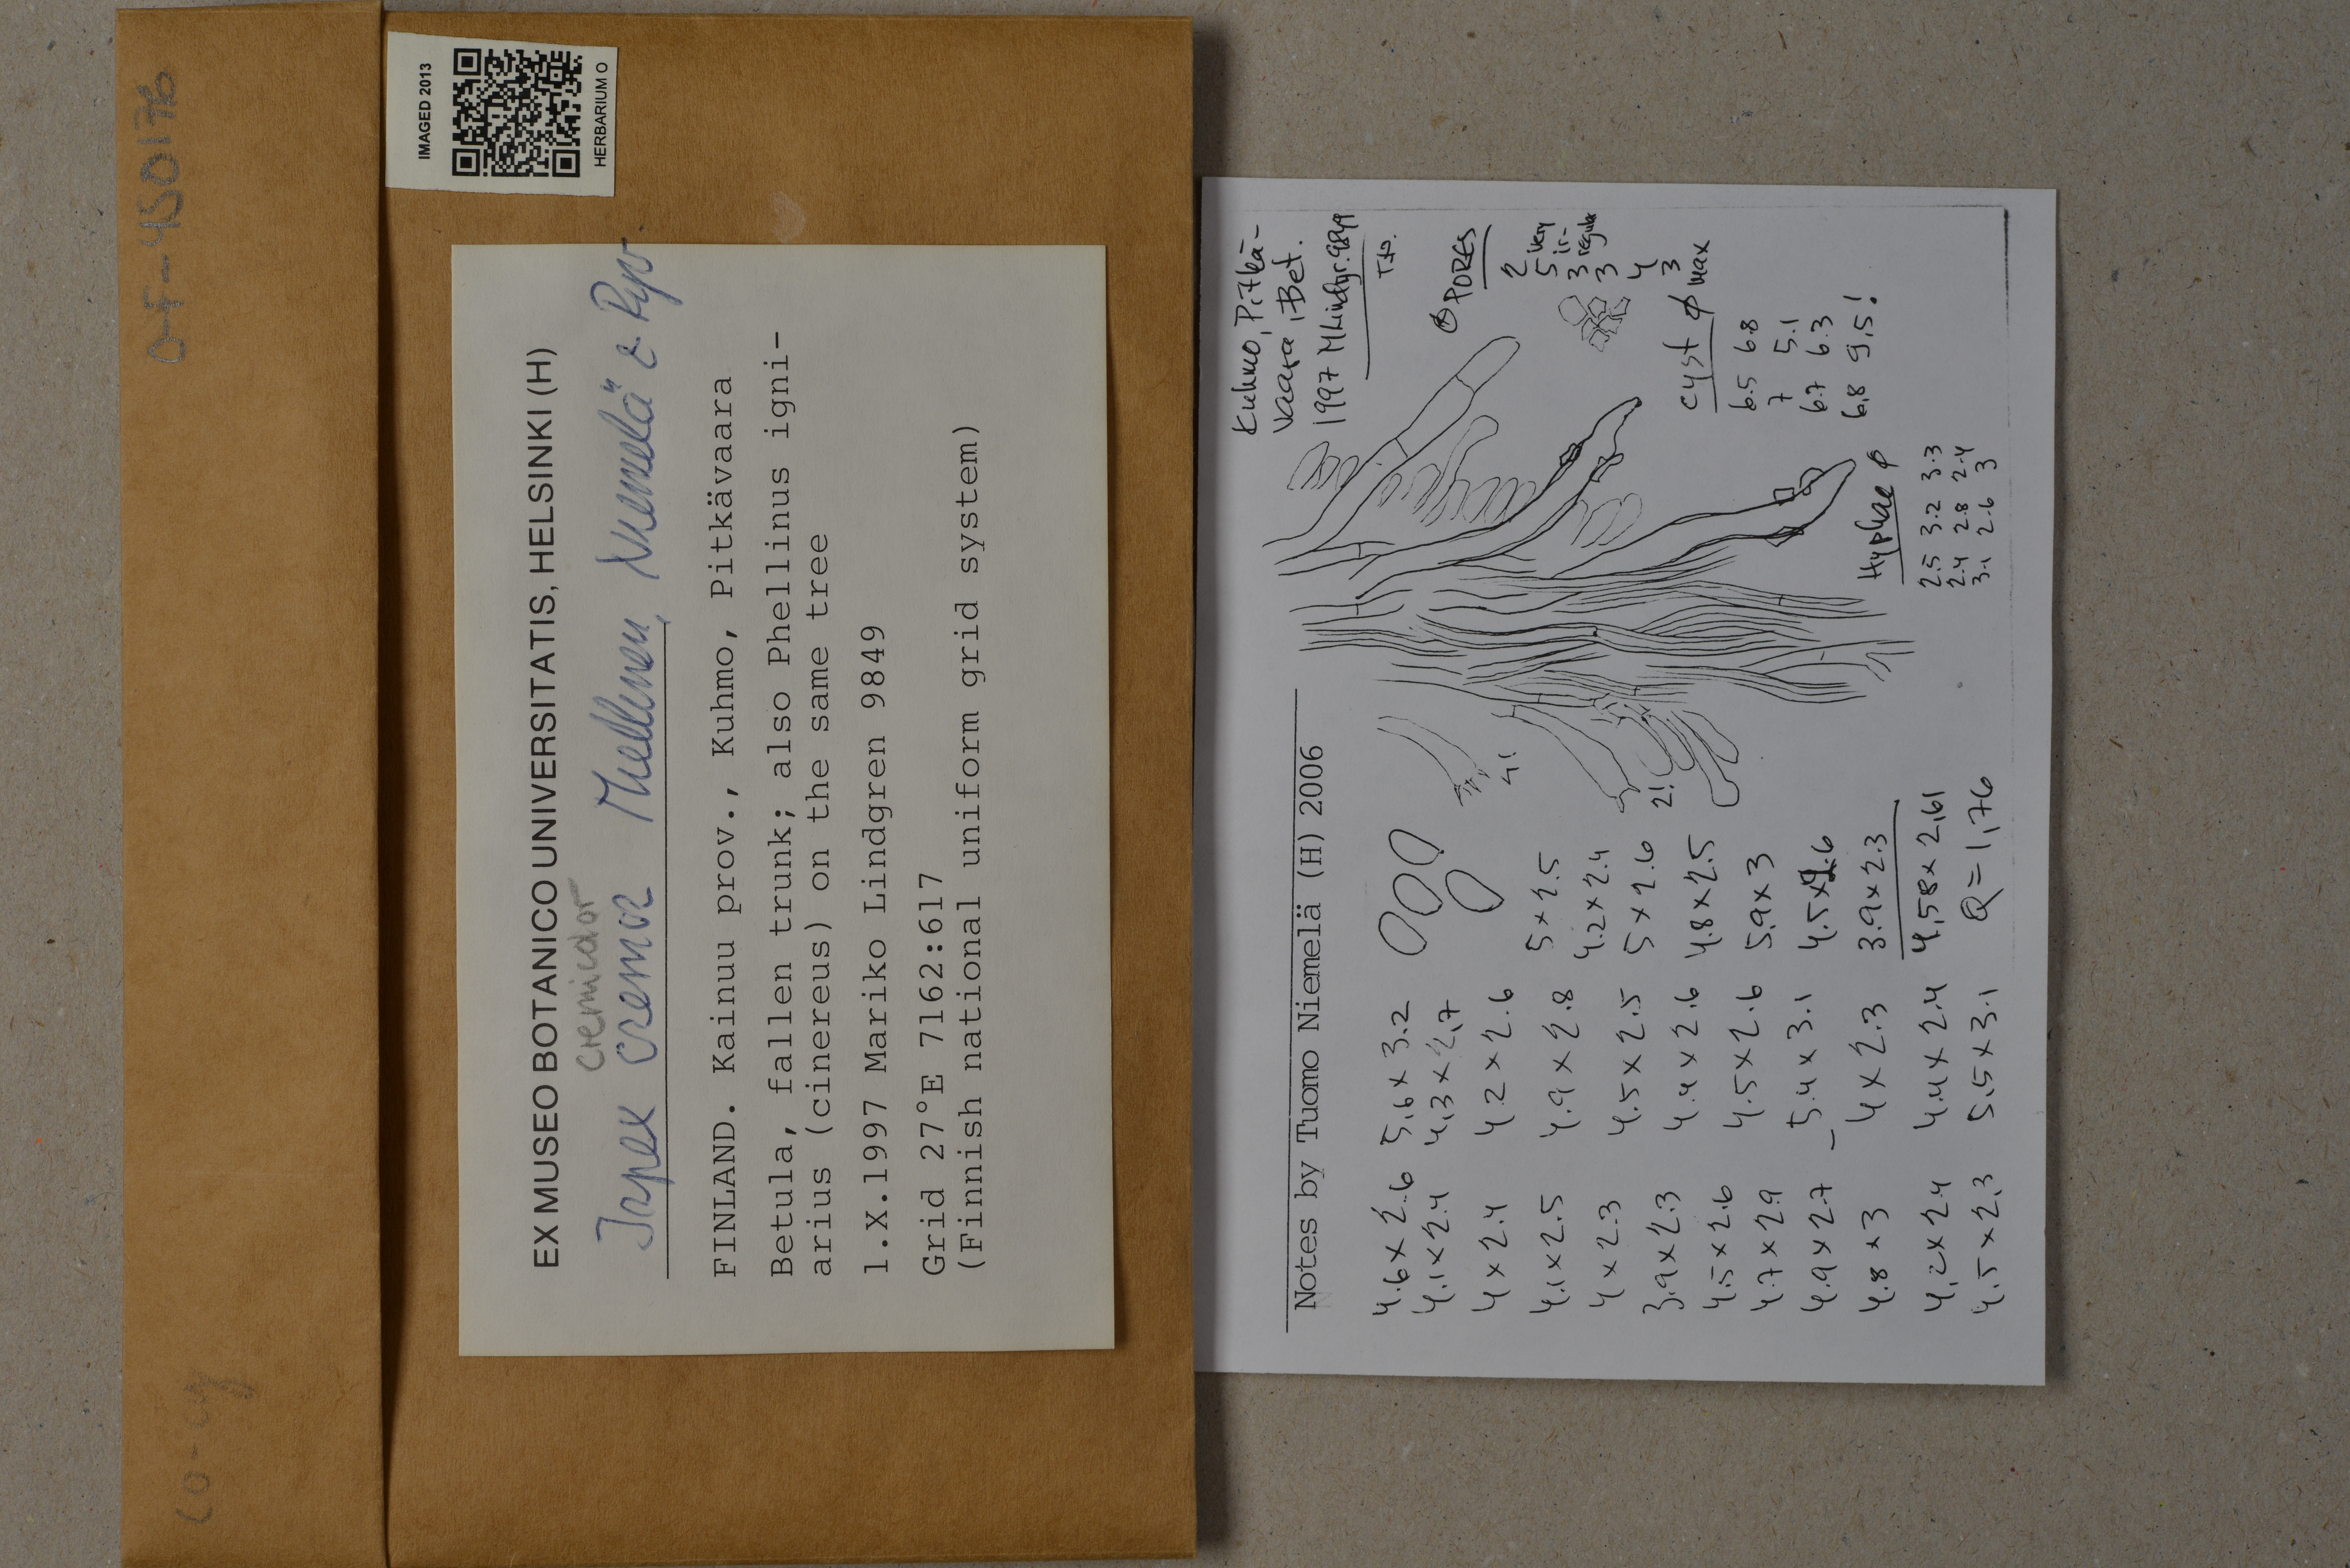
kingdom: Fungi
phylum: Basidiomycota
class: Agaricomycetes
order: Polyporales
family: Steccherinaceae
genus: Junghuhnia
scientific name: Junghuhnia pseudozilingiana
